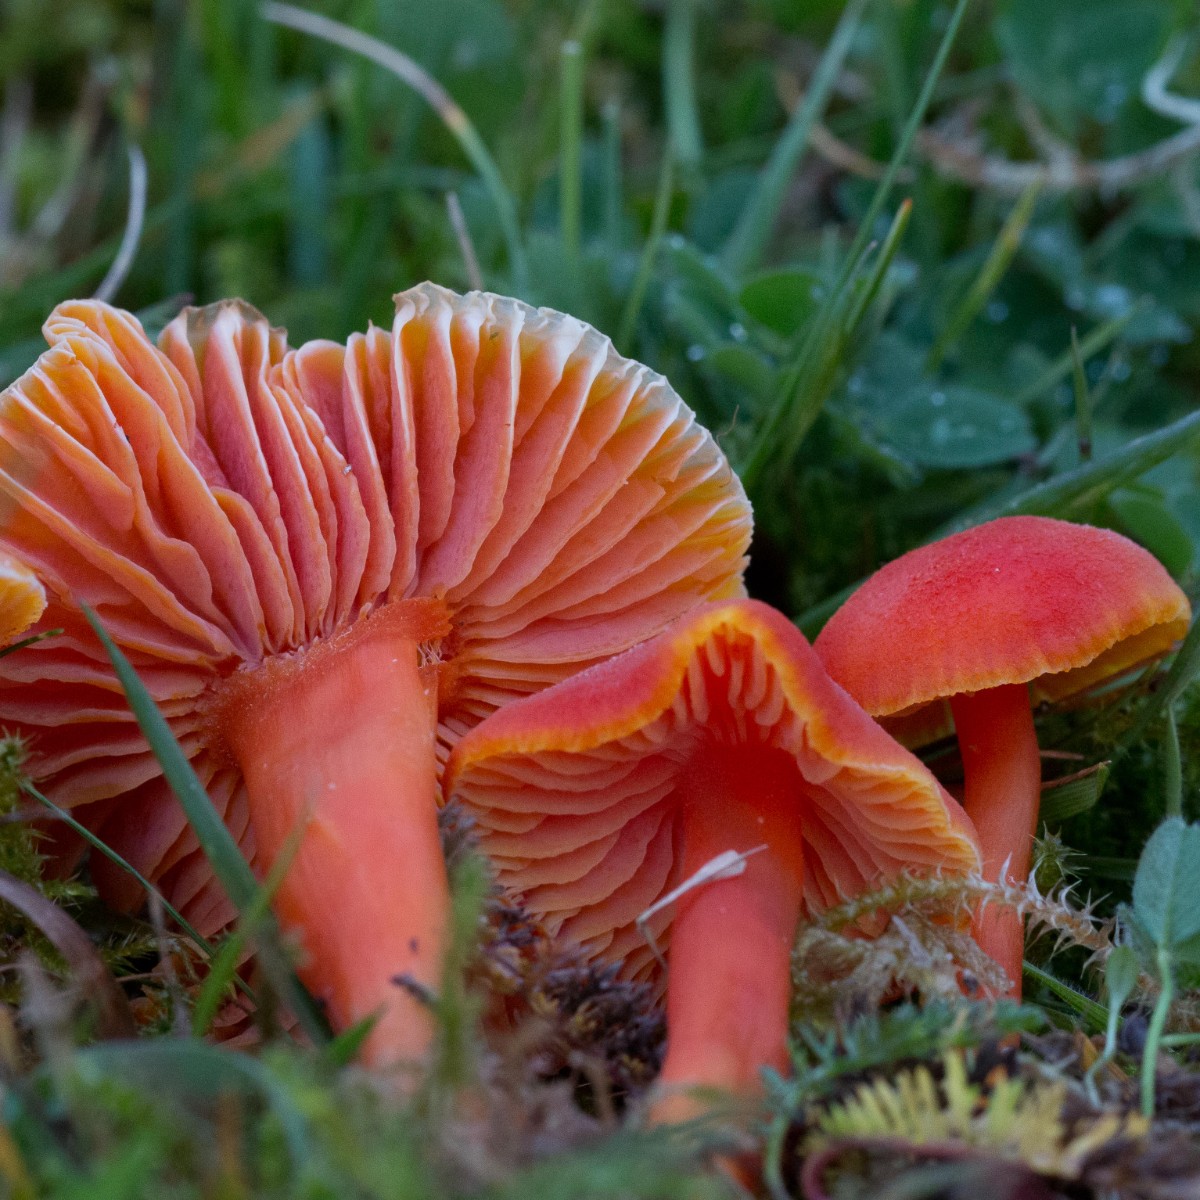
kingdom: Fungi
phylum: Basidiomycota
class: Agaricomycetes
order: Agaricales
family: Hygrophoraceae
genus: Hygrocybe
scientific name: Hygrocybe miniata
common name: mønje-vokshat
